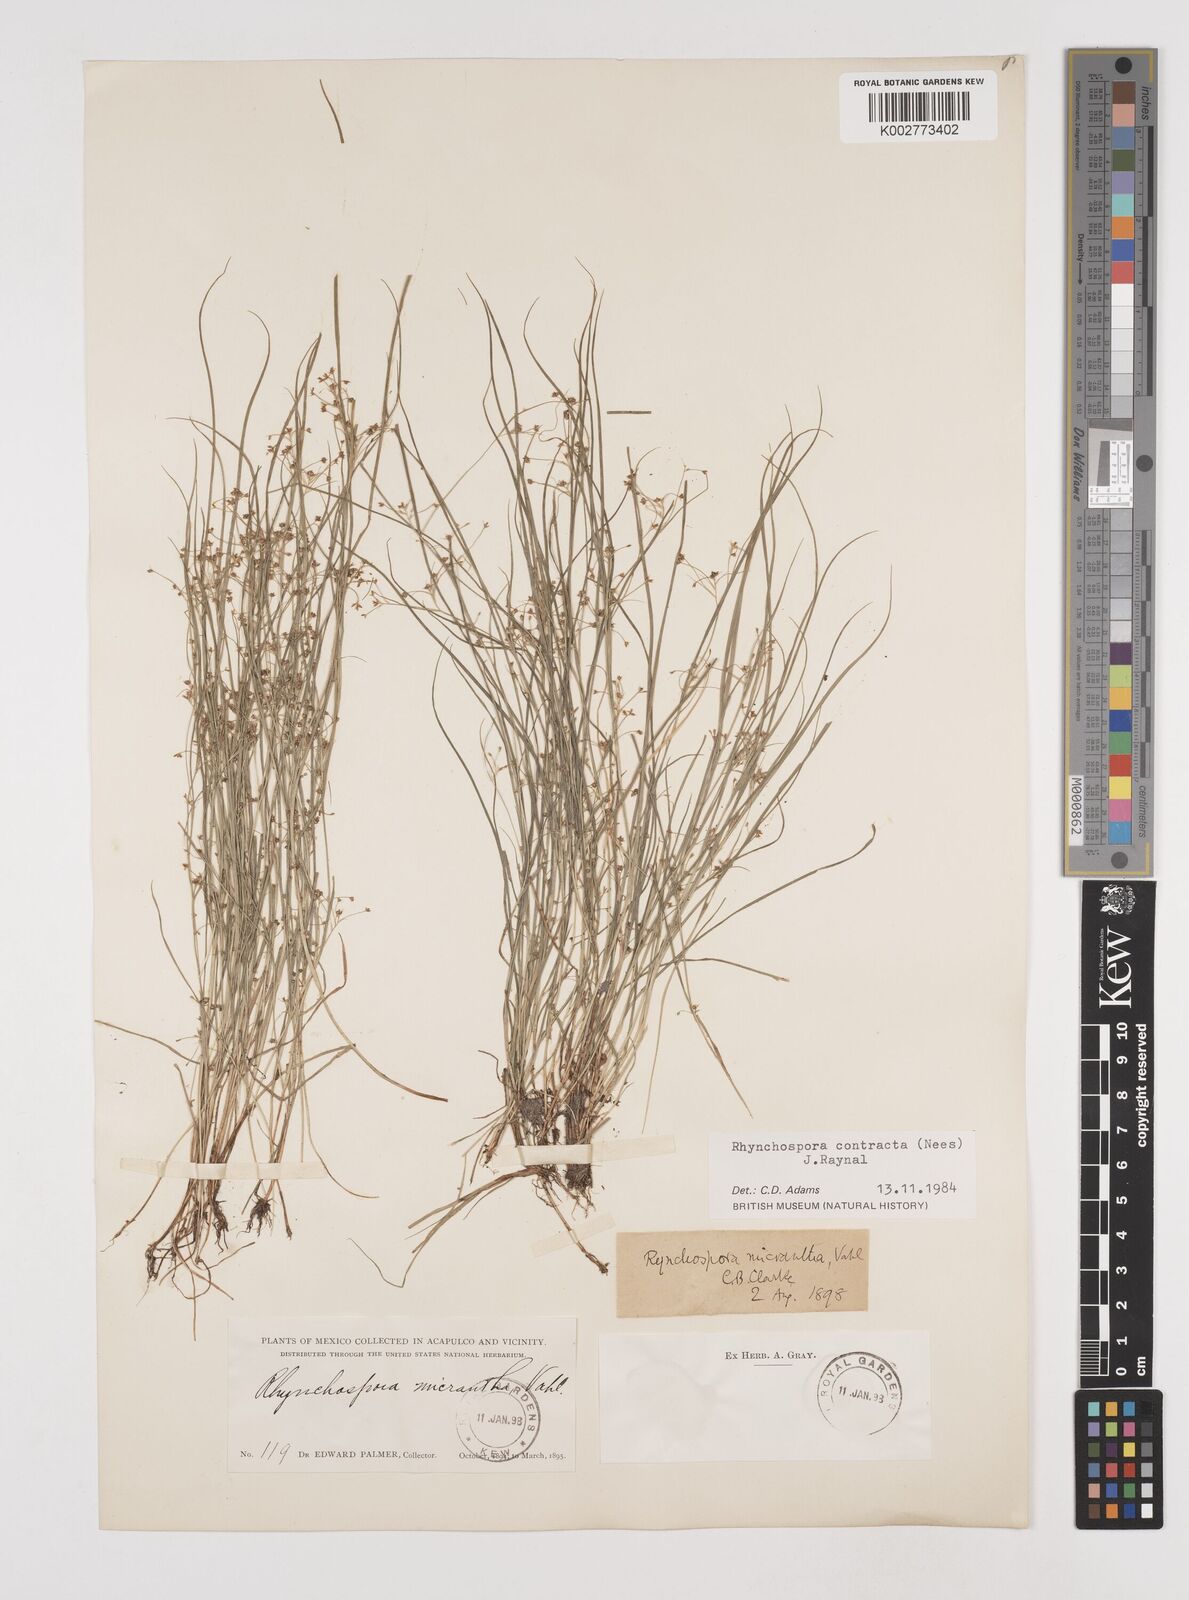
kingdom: Plantae
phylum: Tracheophyta
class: Liliopsida
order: Poales
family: Cyperaceae
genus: Rhynchospora
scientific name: Rhynchospora contracta
